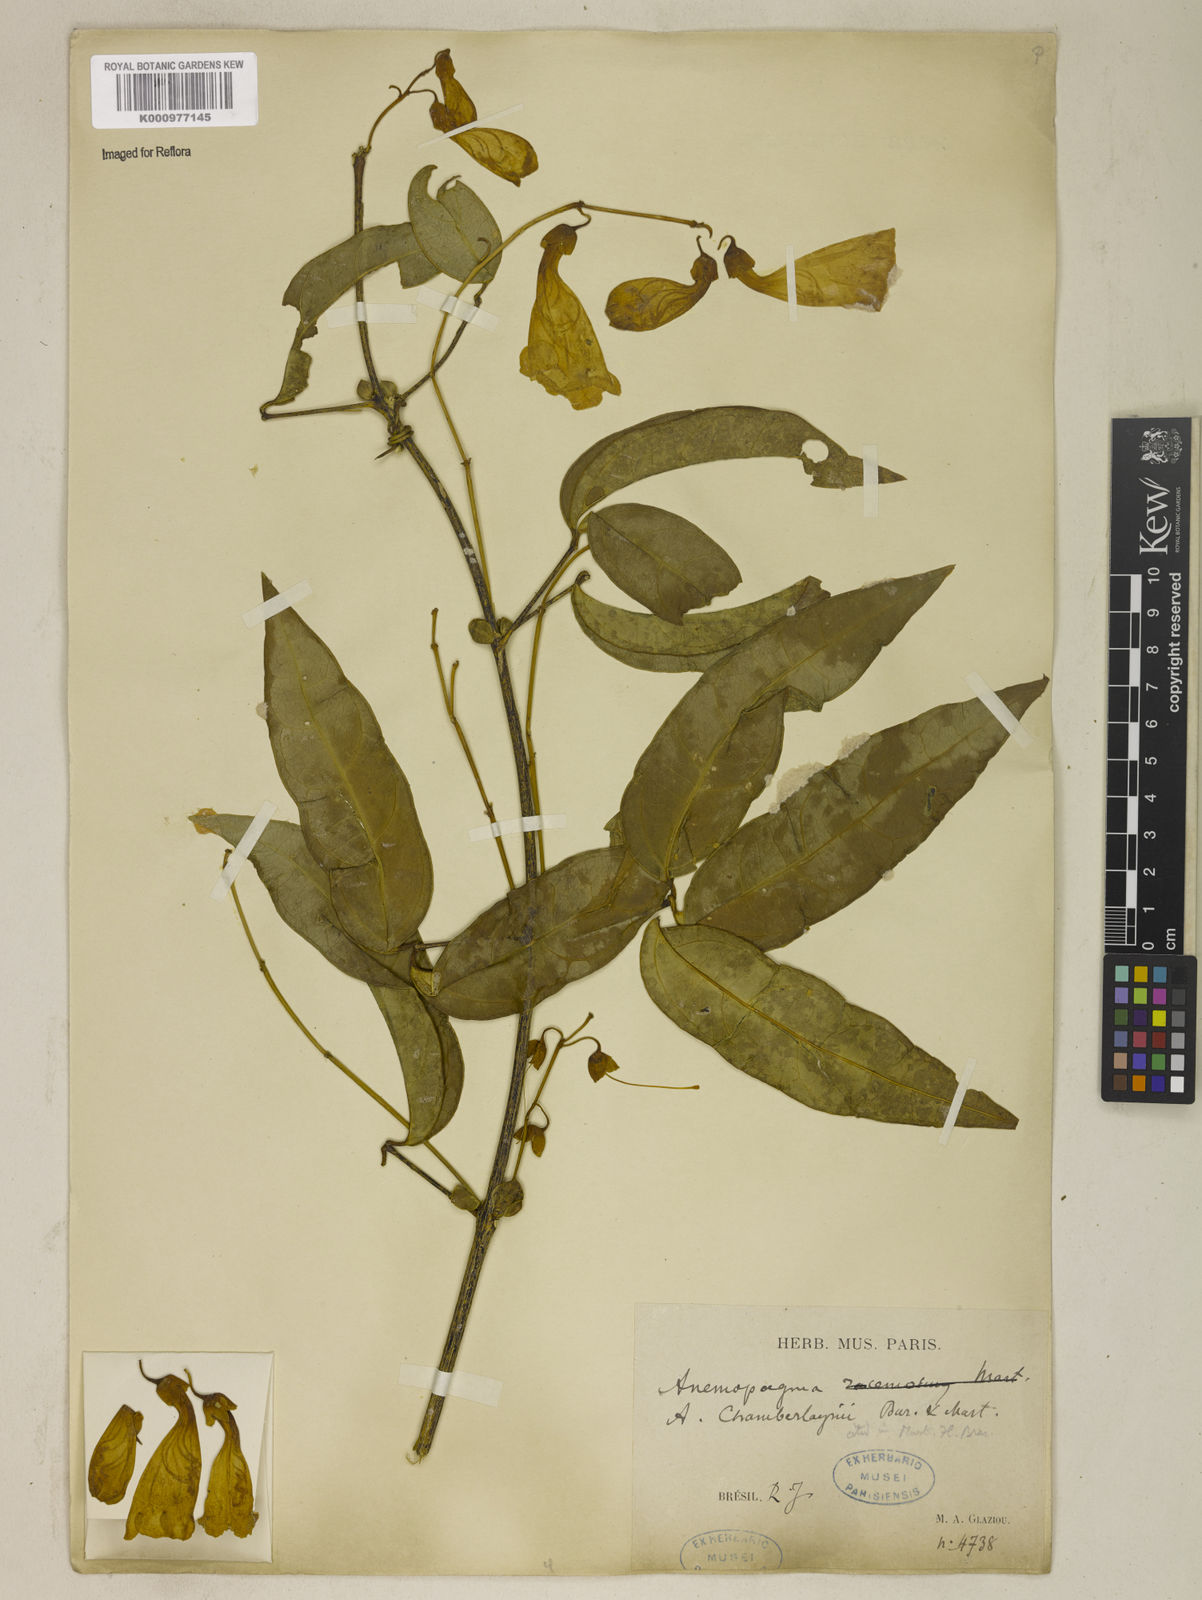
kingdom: Plantae
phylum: Tracheophyta
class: Magnoliopsida
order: Lamiales
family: Bignoniaceae
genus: Anemopaegma
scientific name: Anemopaegma chamberlaynii
